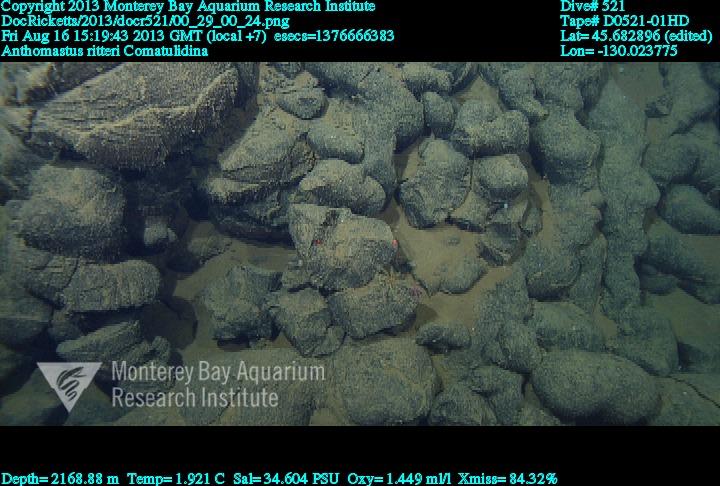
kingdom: Animalia
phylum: Cnidaria
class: Anthozoa
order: Scleralcyonacea
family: Coralliidae
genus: Heteropolypus
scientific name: Heteropolypus ritteri
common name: Ritter's soft coral
